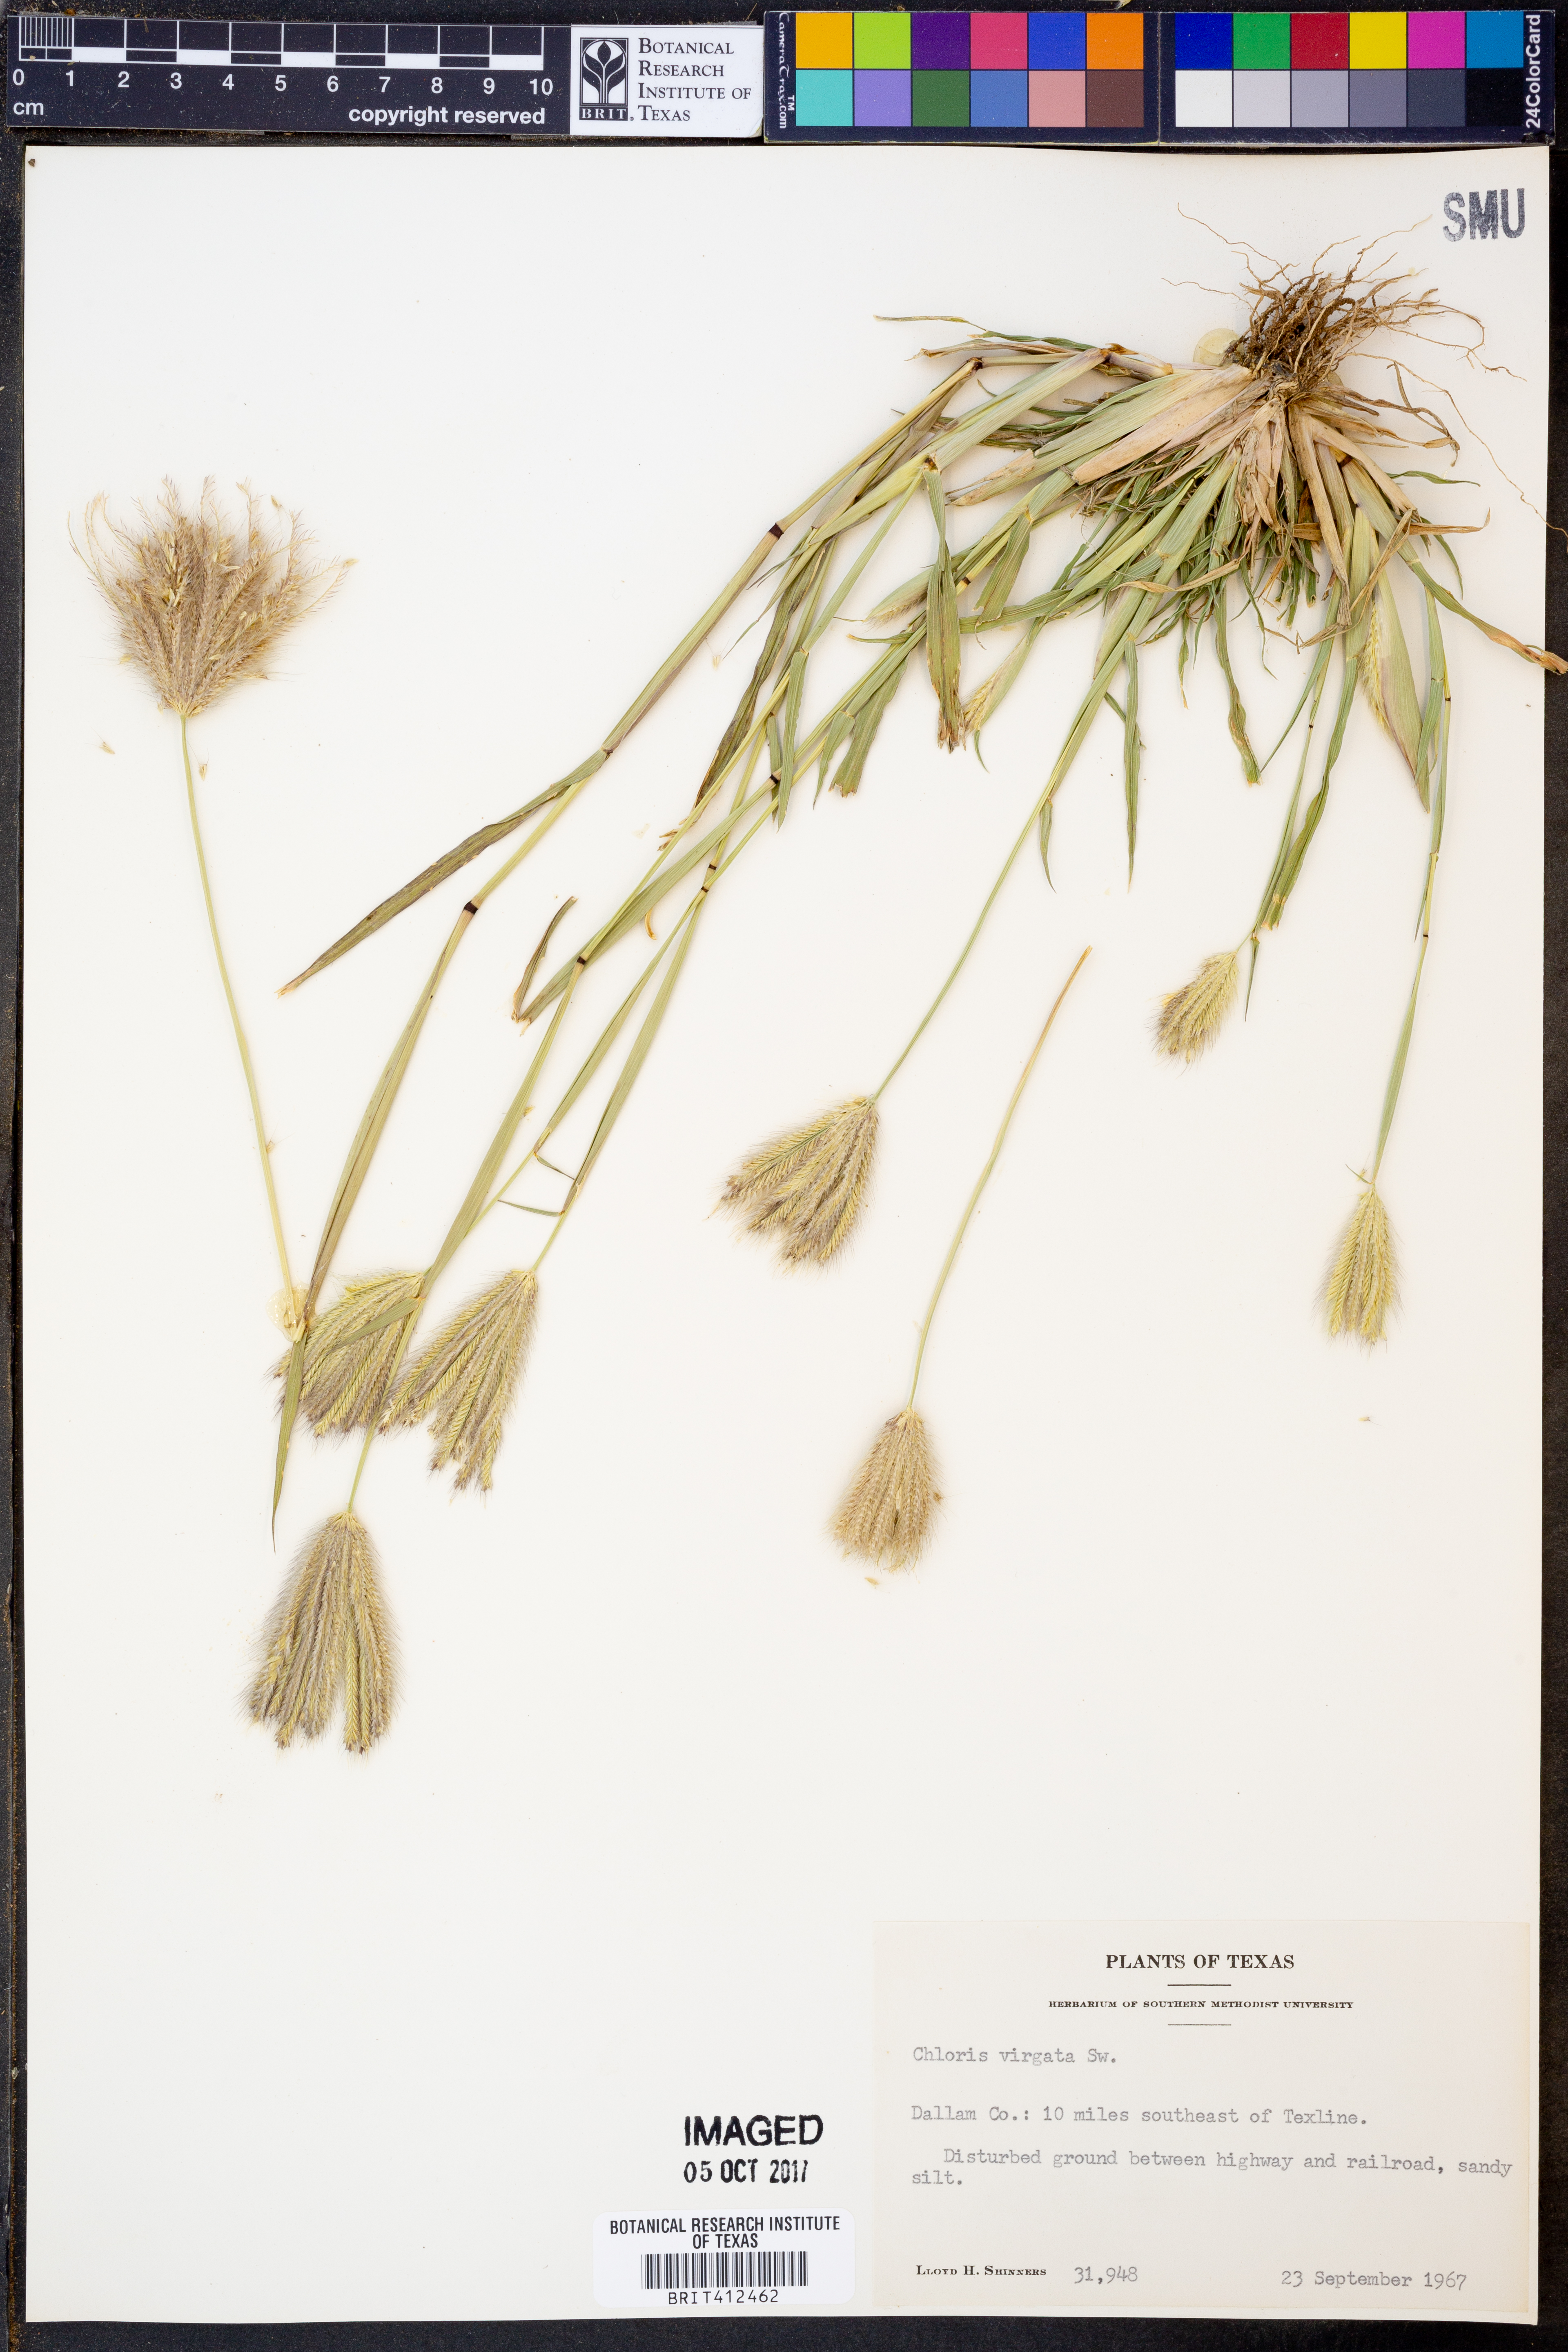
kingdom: Plantae
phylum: Tracheophyta
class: Liliopsida
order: Poales
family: Poaceae
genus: Chloris
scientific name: Chloris virgata
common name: Feathery rhodes-grass
